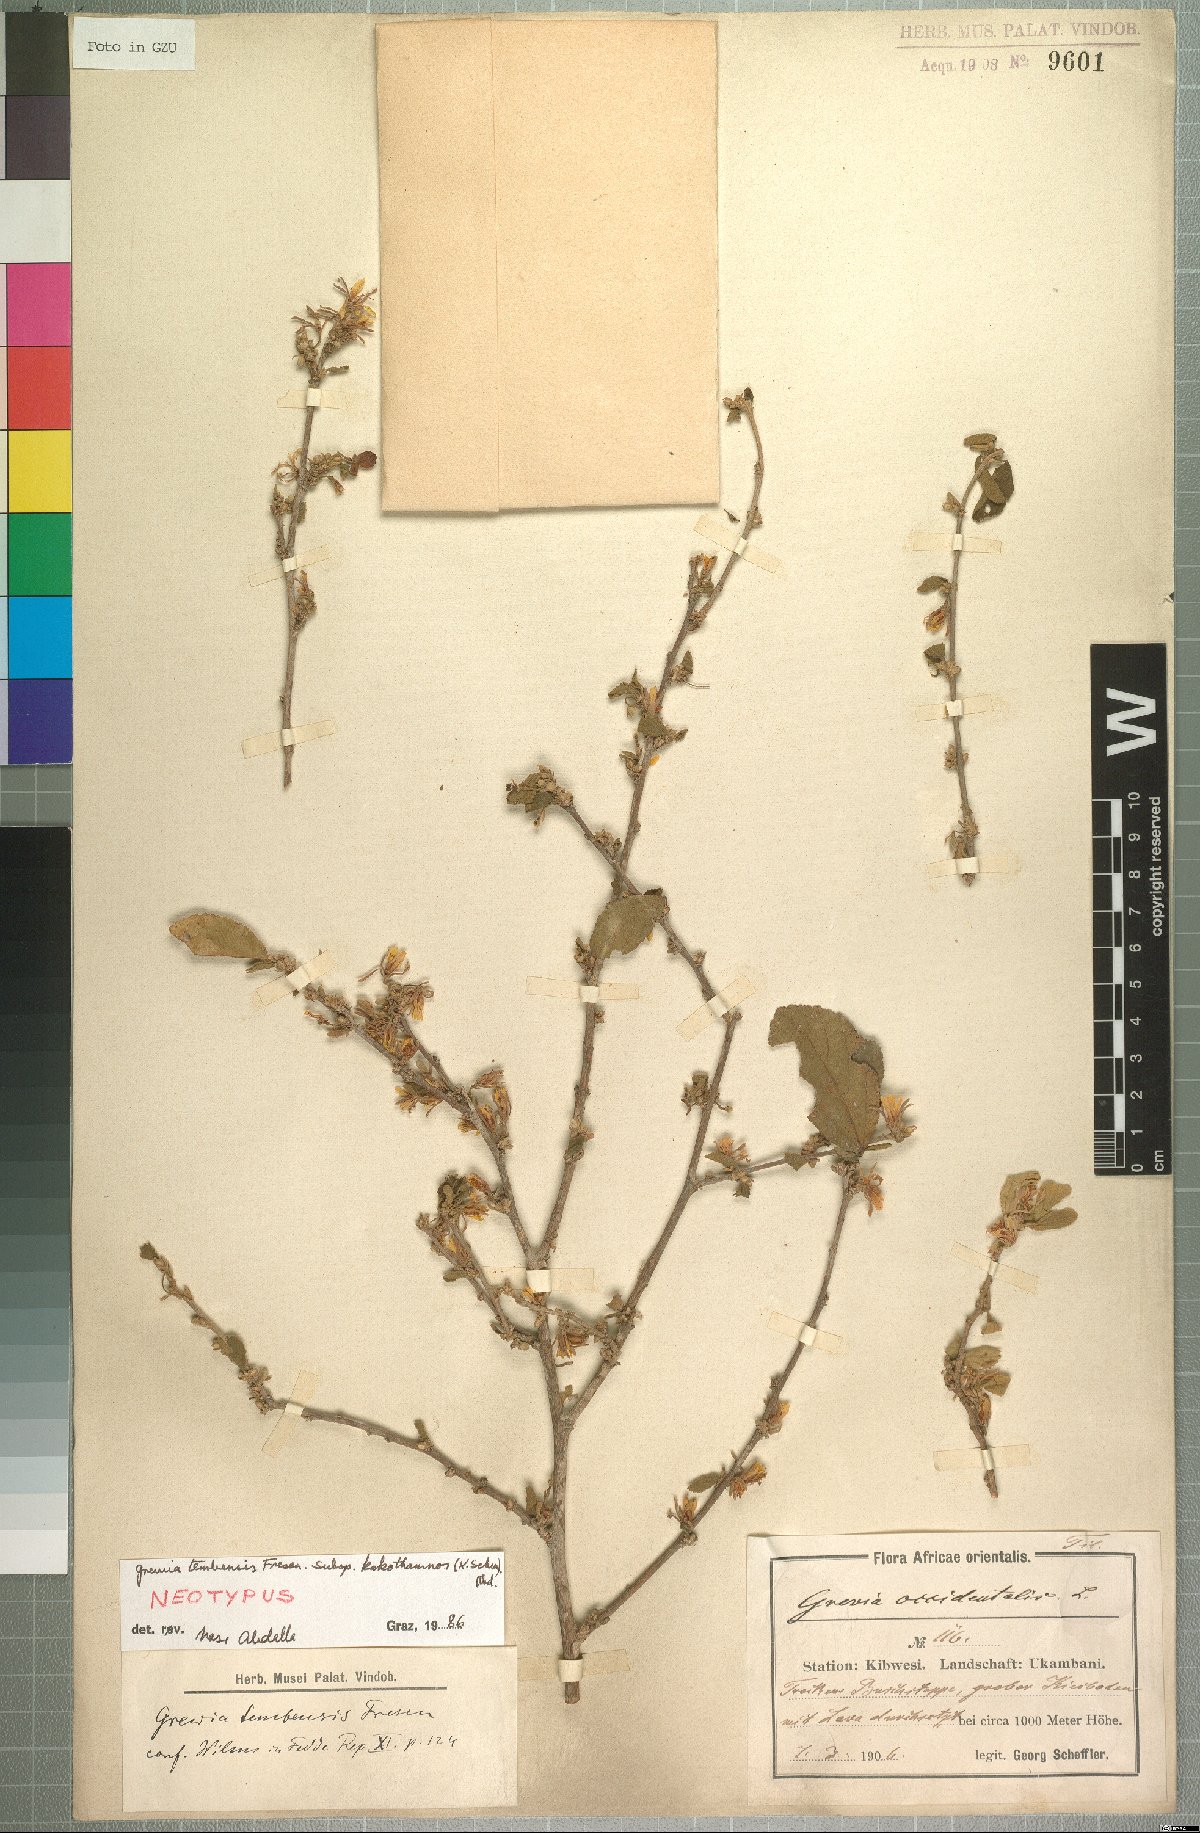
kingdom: Plantae
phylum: Tracheophyta
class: Magnoliopsida
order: Malvales
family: Malvaceae
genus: Grewia
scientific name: Grewia kakothamnos
